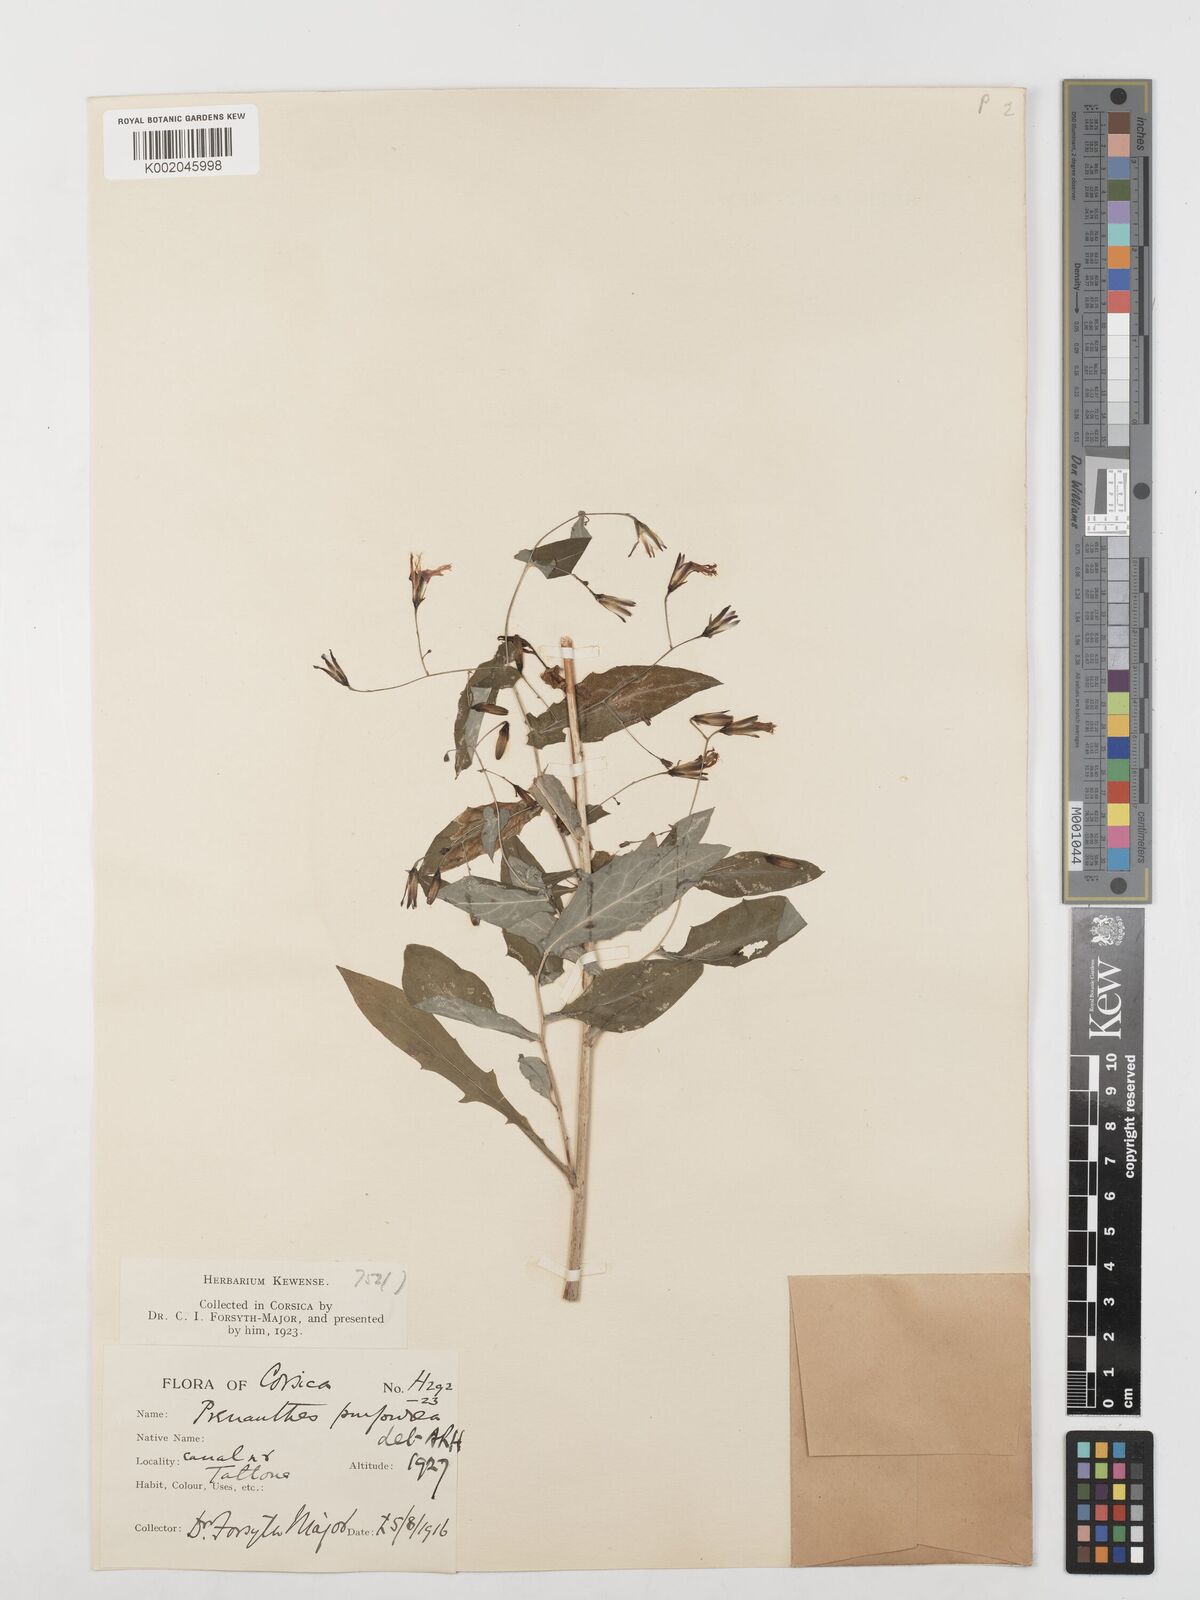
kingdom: Plantae
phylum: Tracheophyta
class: Magnoliopsida
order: Asterales
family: Asteraceae
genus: Prenanthes
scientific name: Prenanthes purpurea
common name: Purple lettuce
